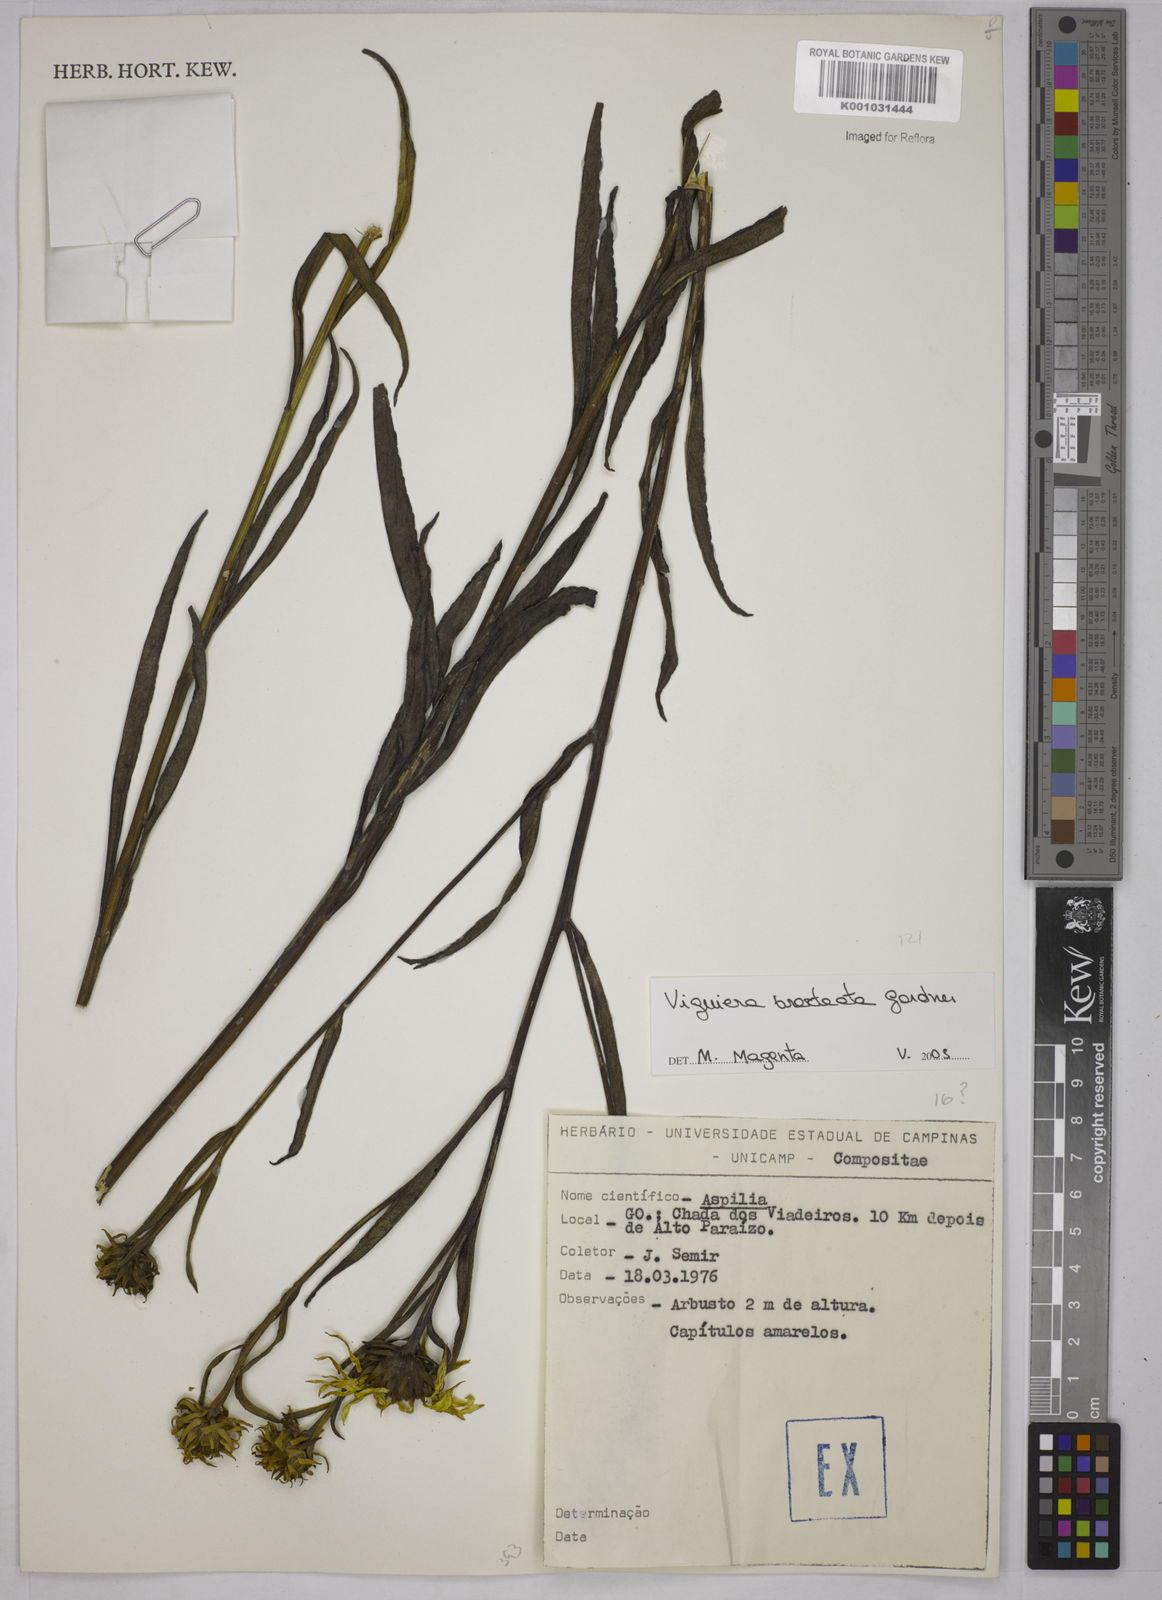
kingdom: Plantae
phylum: Tracheophyta
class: Magnoliopsida
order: Asterales
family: Asteraceae
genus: Aldama
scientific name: Aldama bracteata
